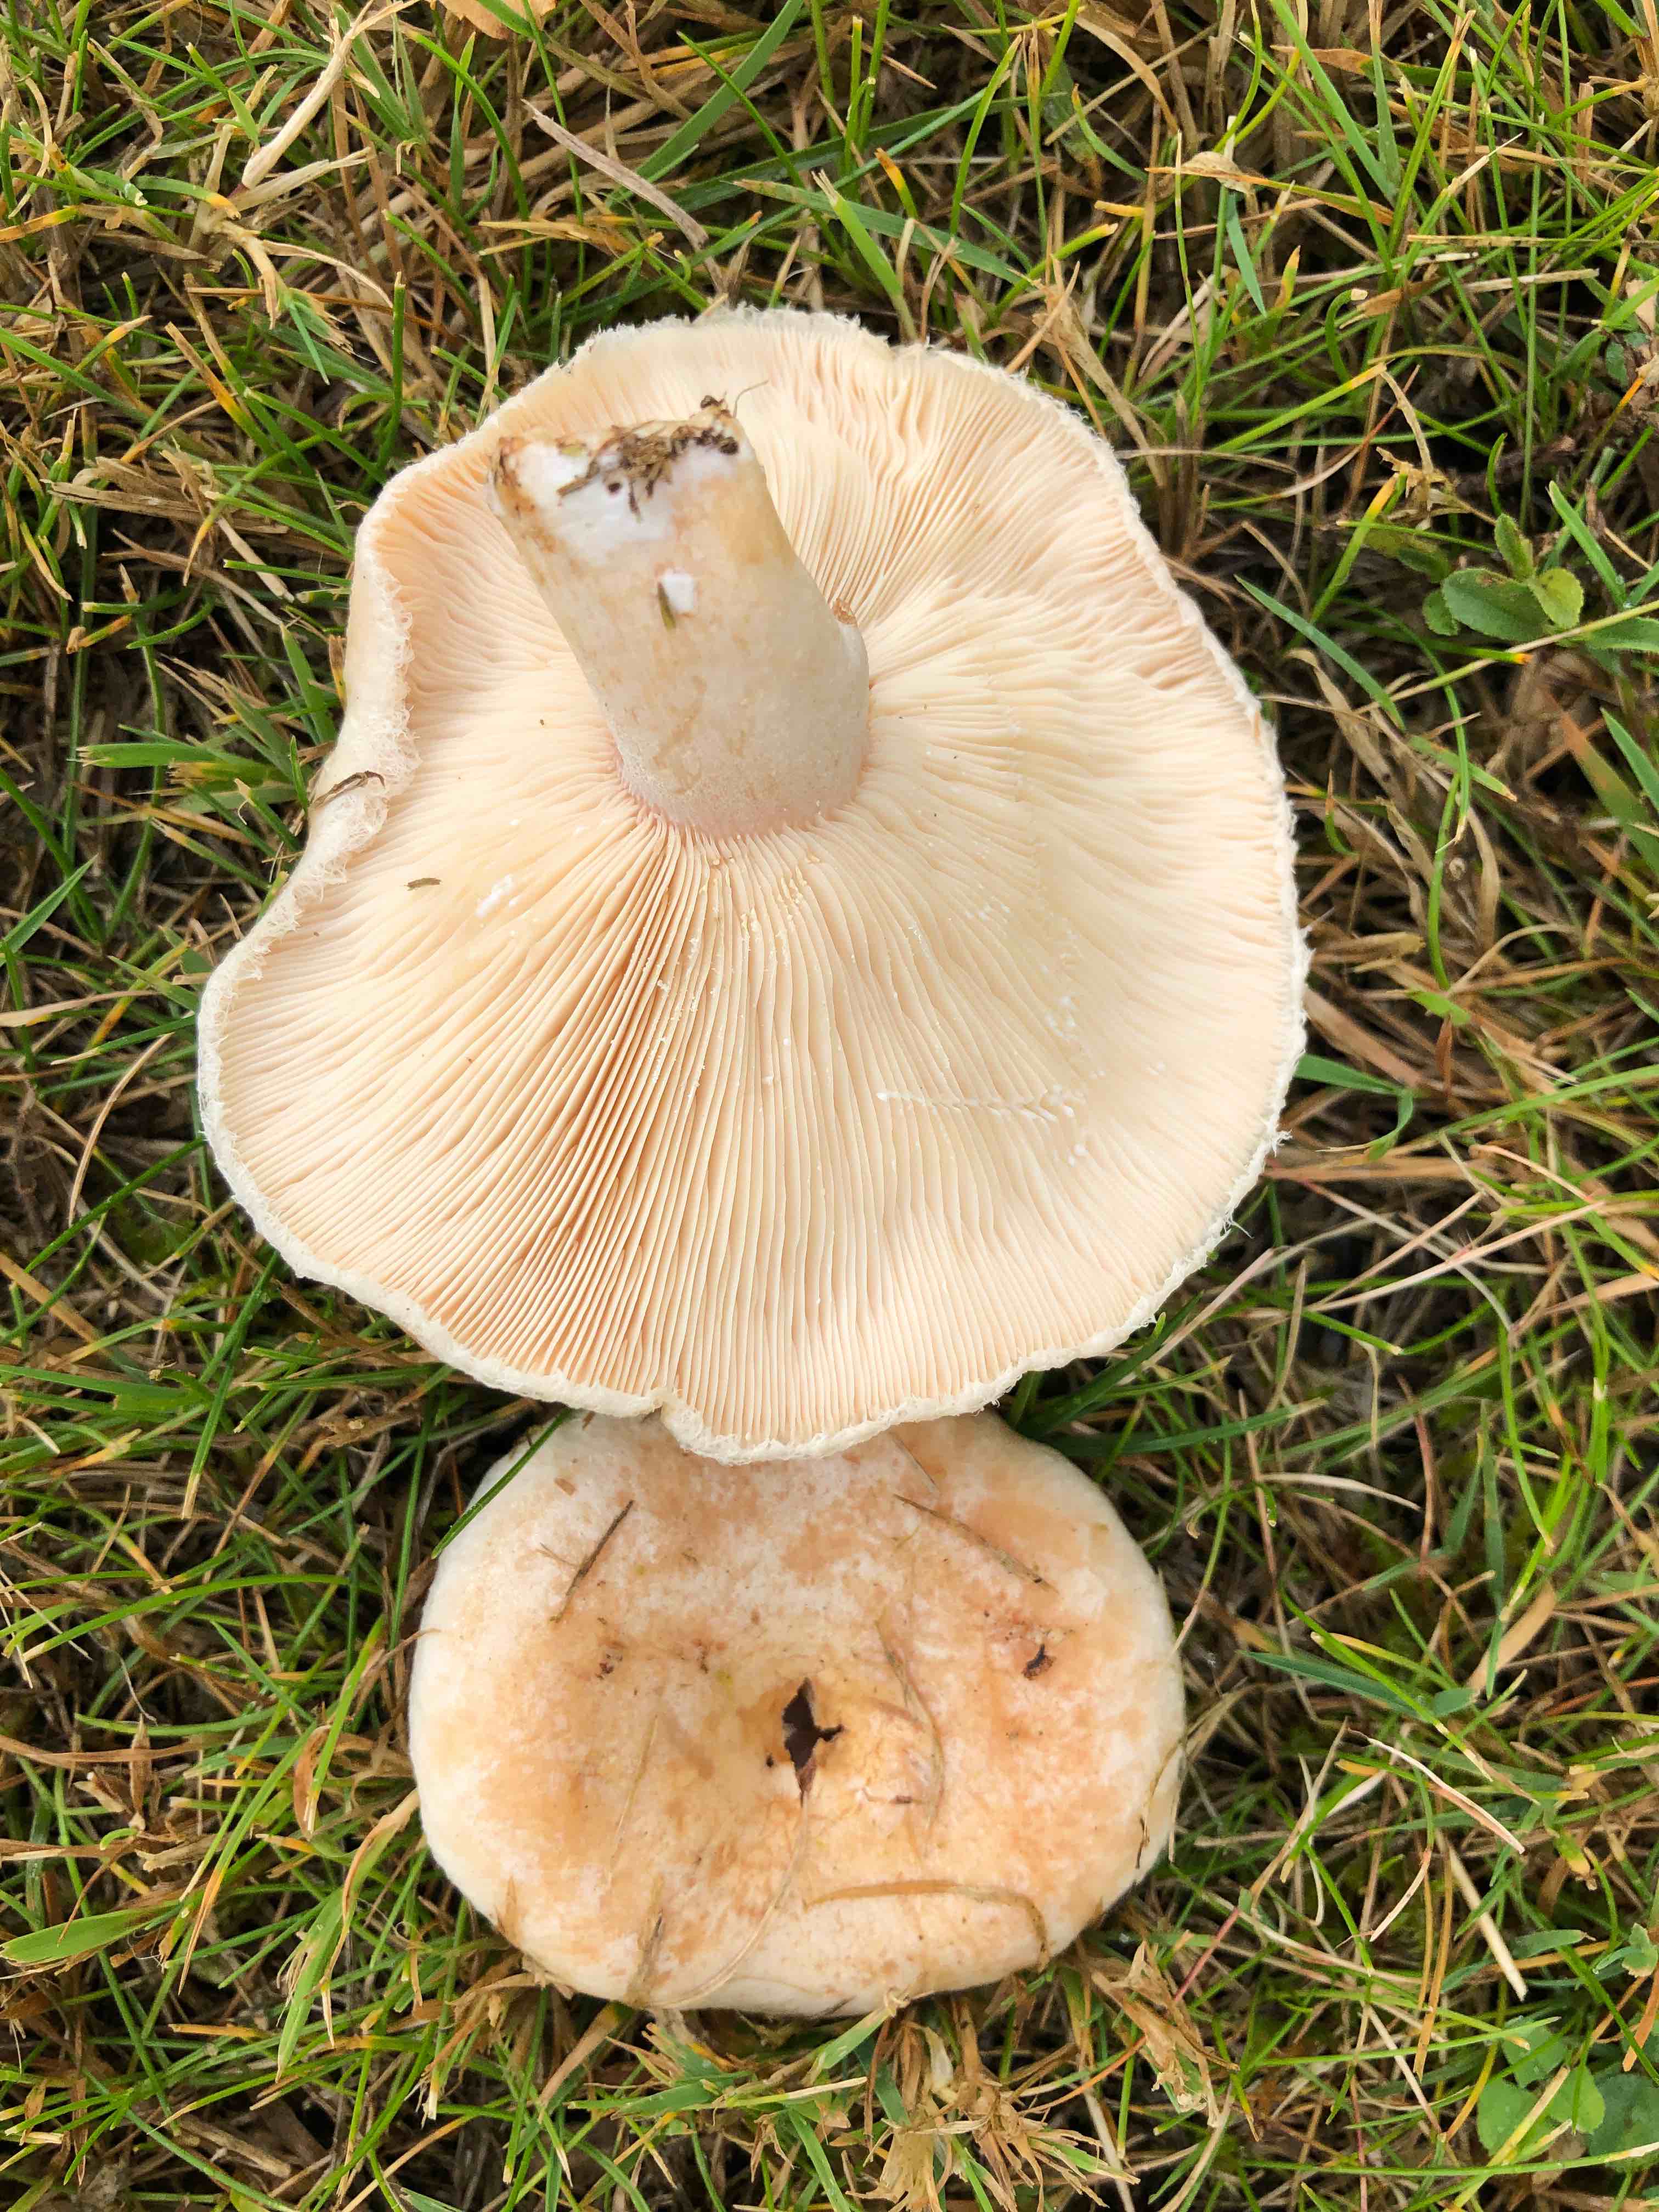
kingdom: Fungi
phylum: Basidiomycota
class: Agaricomycetes
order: Russulales
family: Russulaceae
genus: Lactarius
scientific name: Lactarius pubescens
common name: dunet mælkehat
